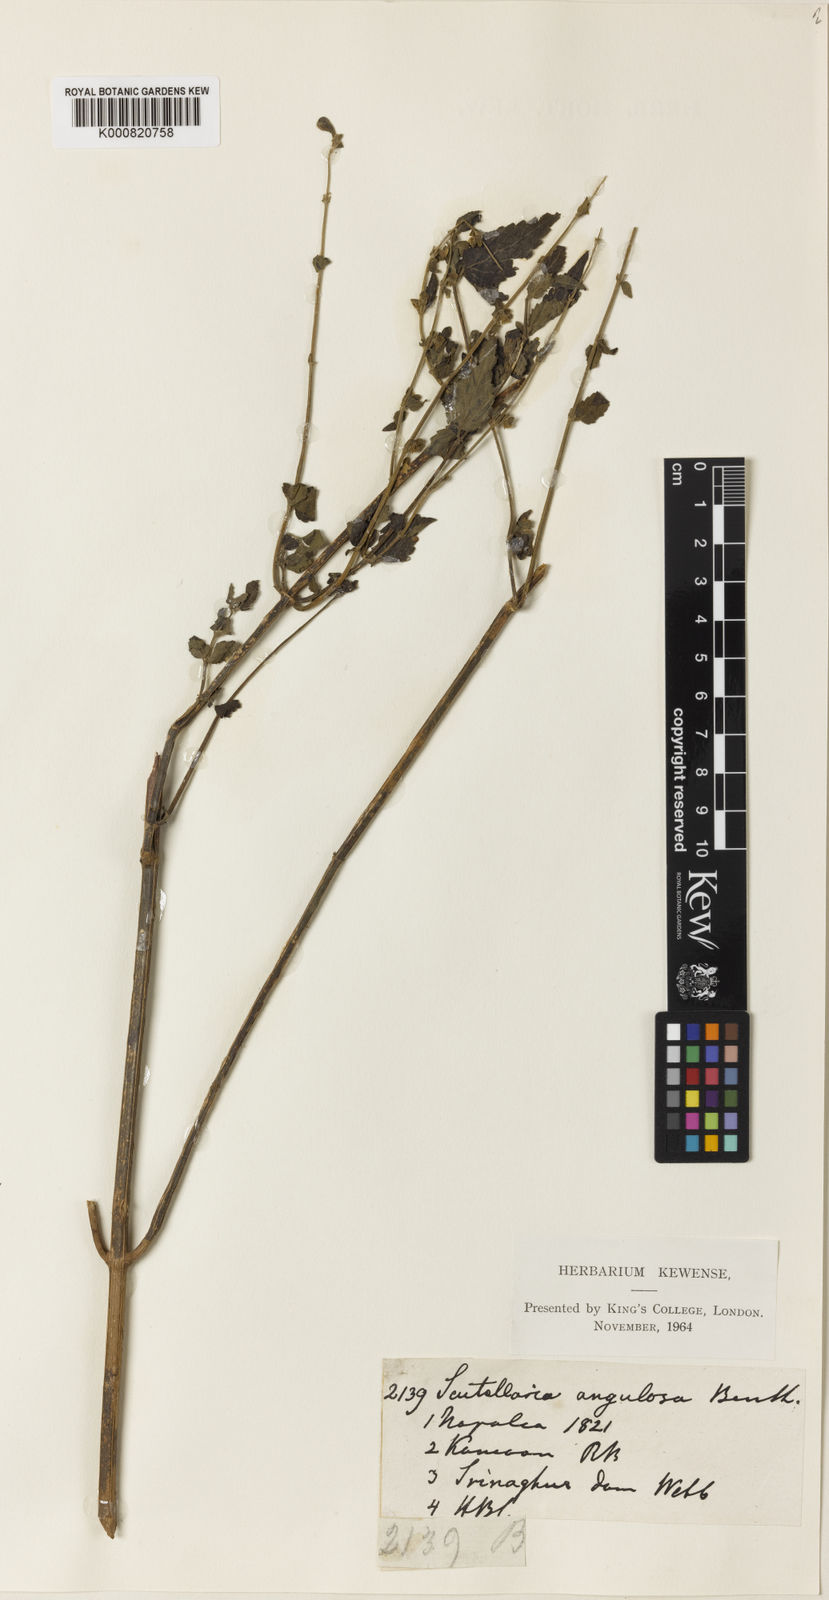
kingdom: Plantae
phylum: Tracheophyta
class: Magnoliopsida
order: Lamiales
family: Lamiaceae
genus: Scutellaria
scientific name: Scutellaria scandens
